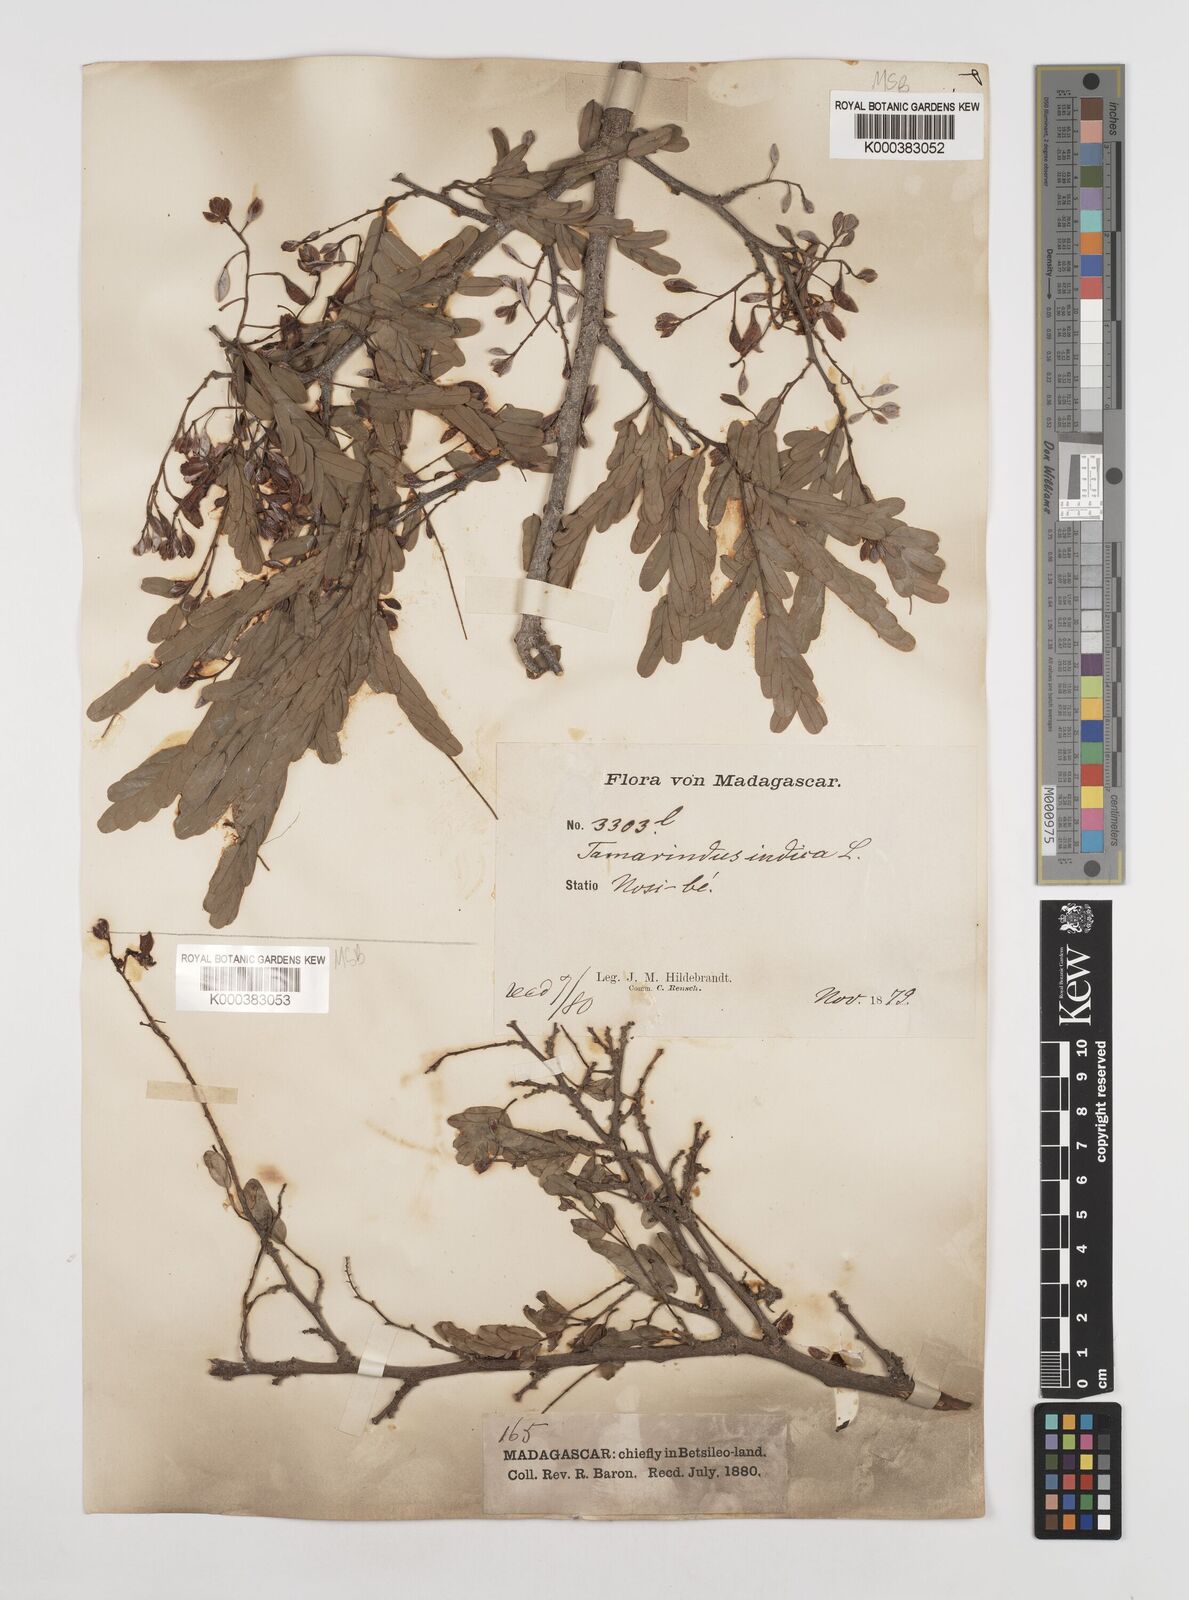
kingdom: Plantae
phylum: Tracheophyta
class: Magnoliopsida
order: Fabales
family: Fabaceae
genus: Tamarindus
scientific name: Tamarindus indica
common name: Tamarind
